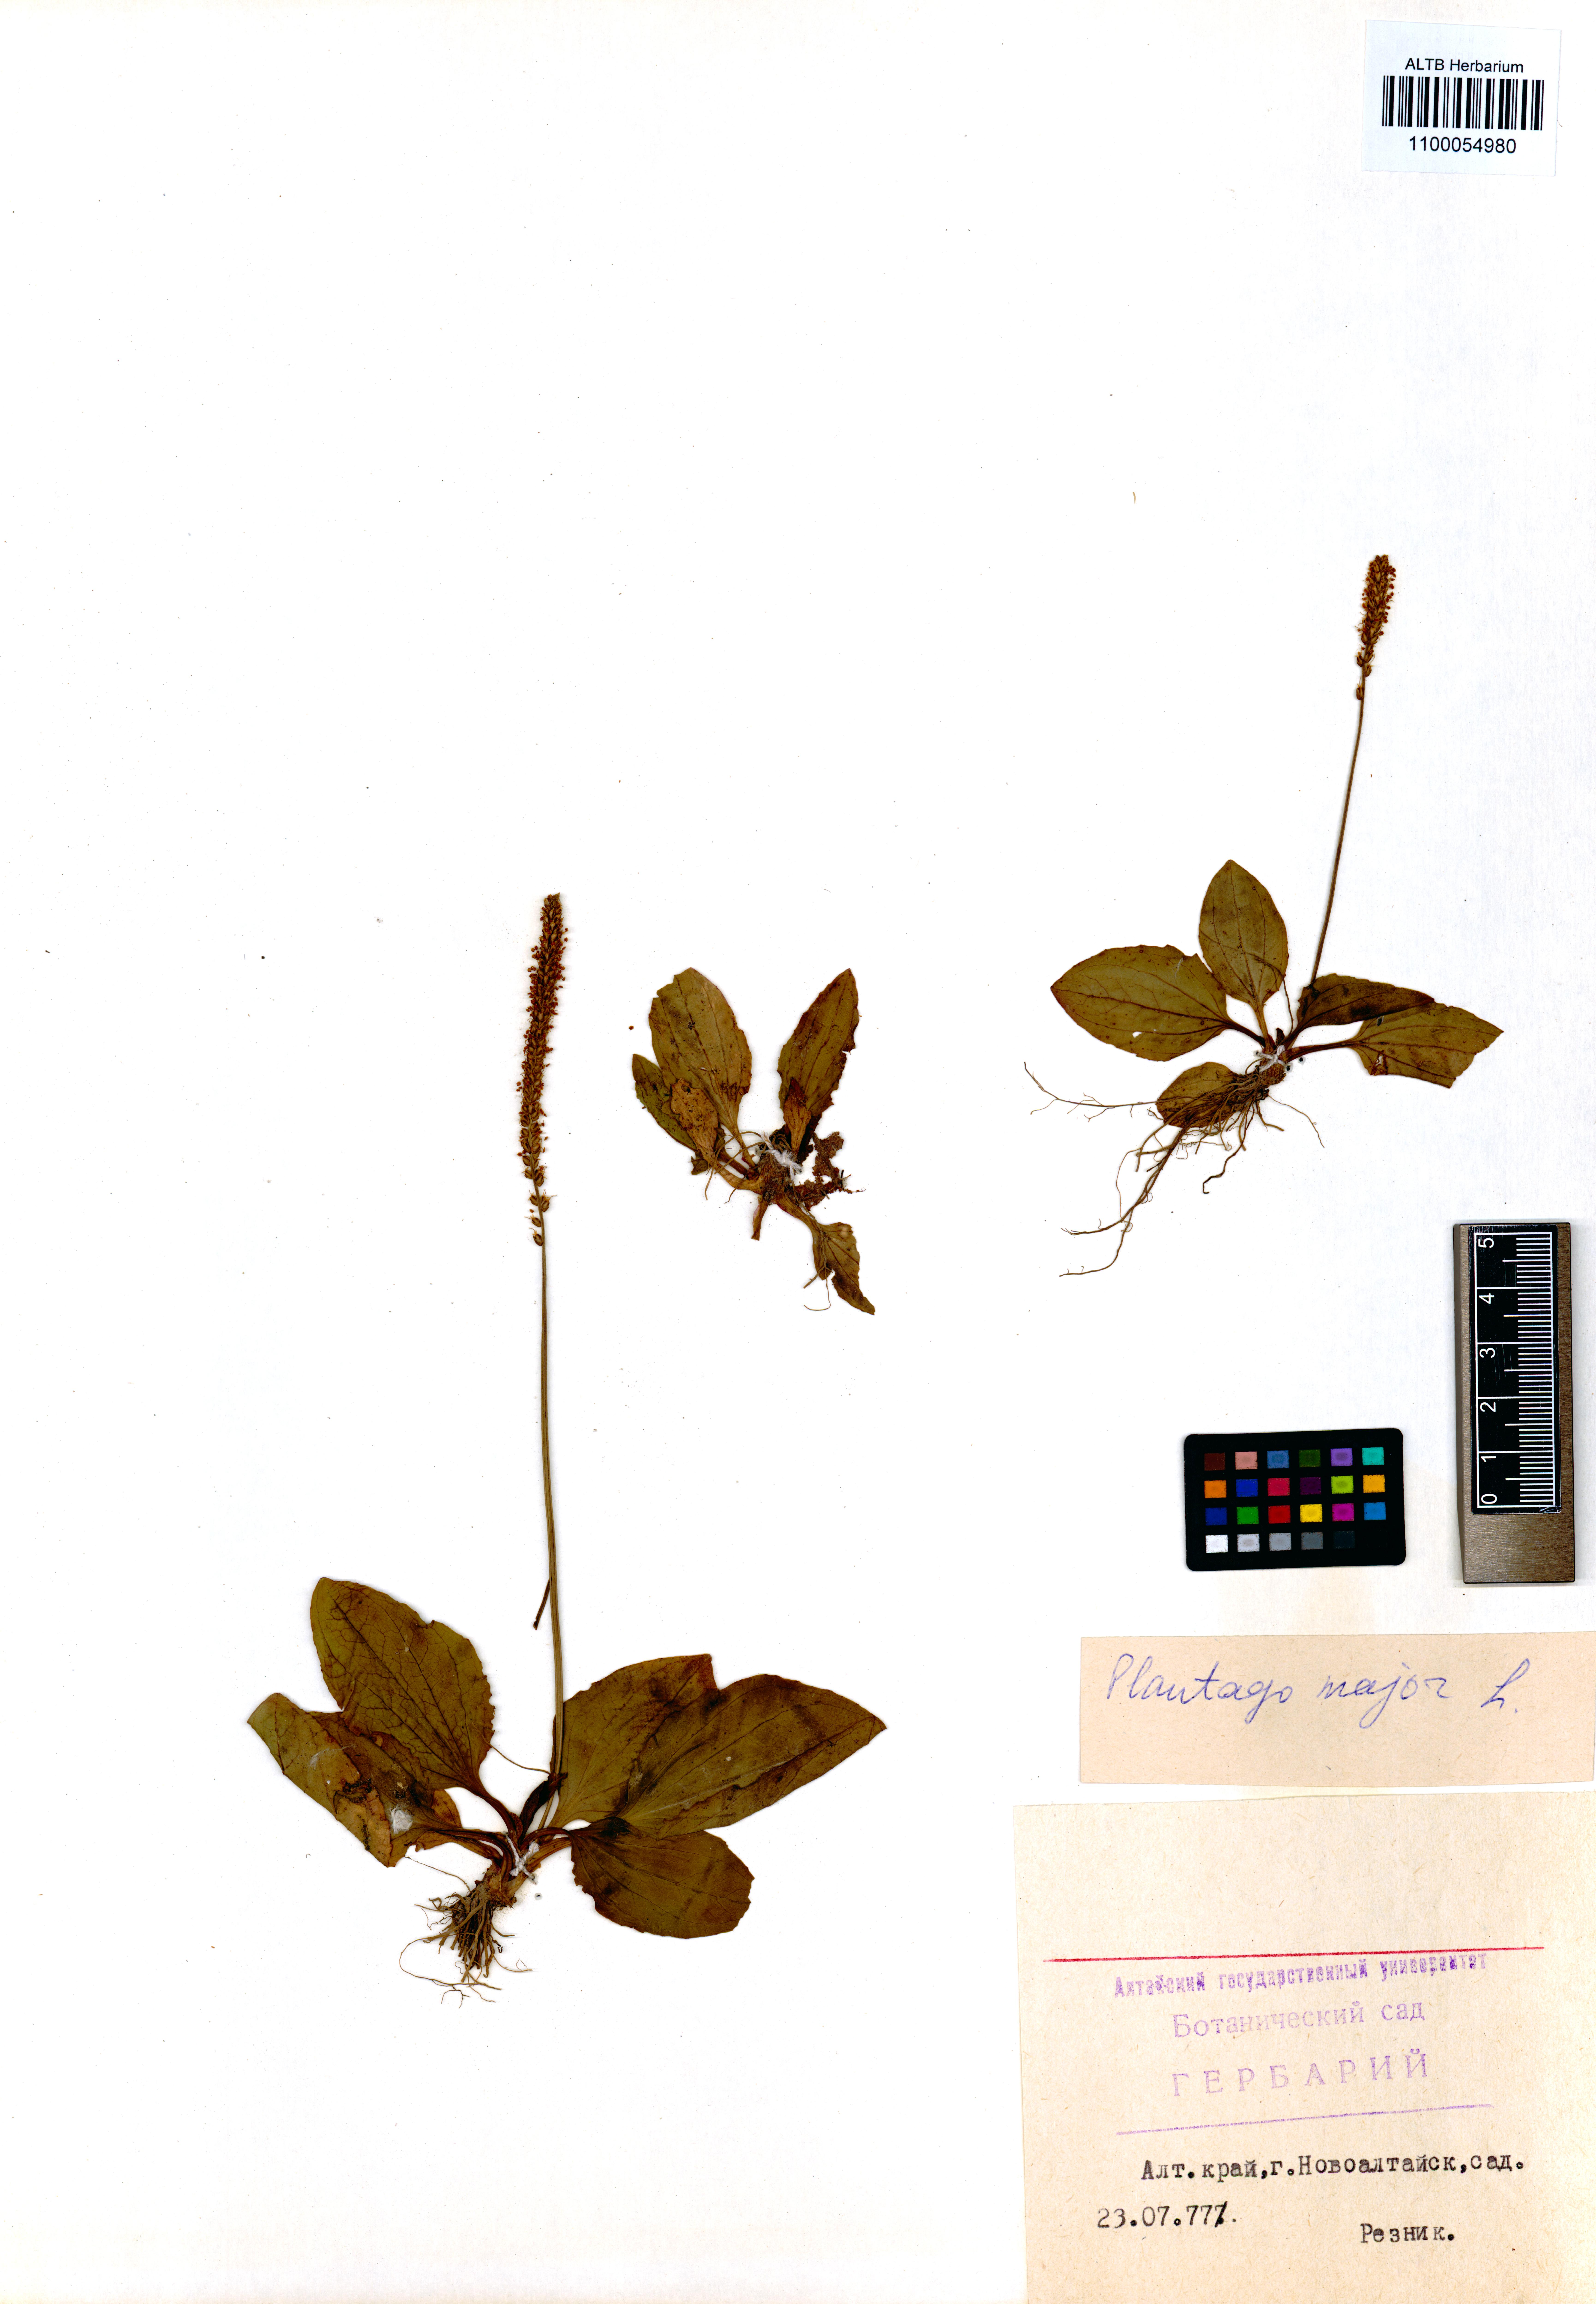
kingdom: Plantae
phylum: Tracheophyta
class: Magnoliopsida
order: Lamiales
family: Plantaginaceae
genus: Plantago
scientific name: Plantago major
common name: Common plantain
